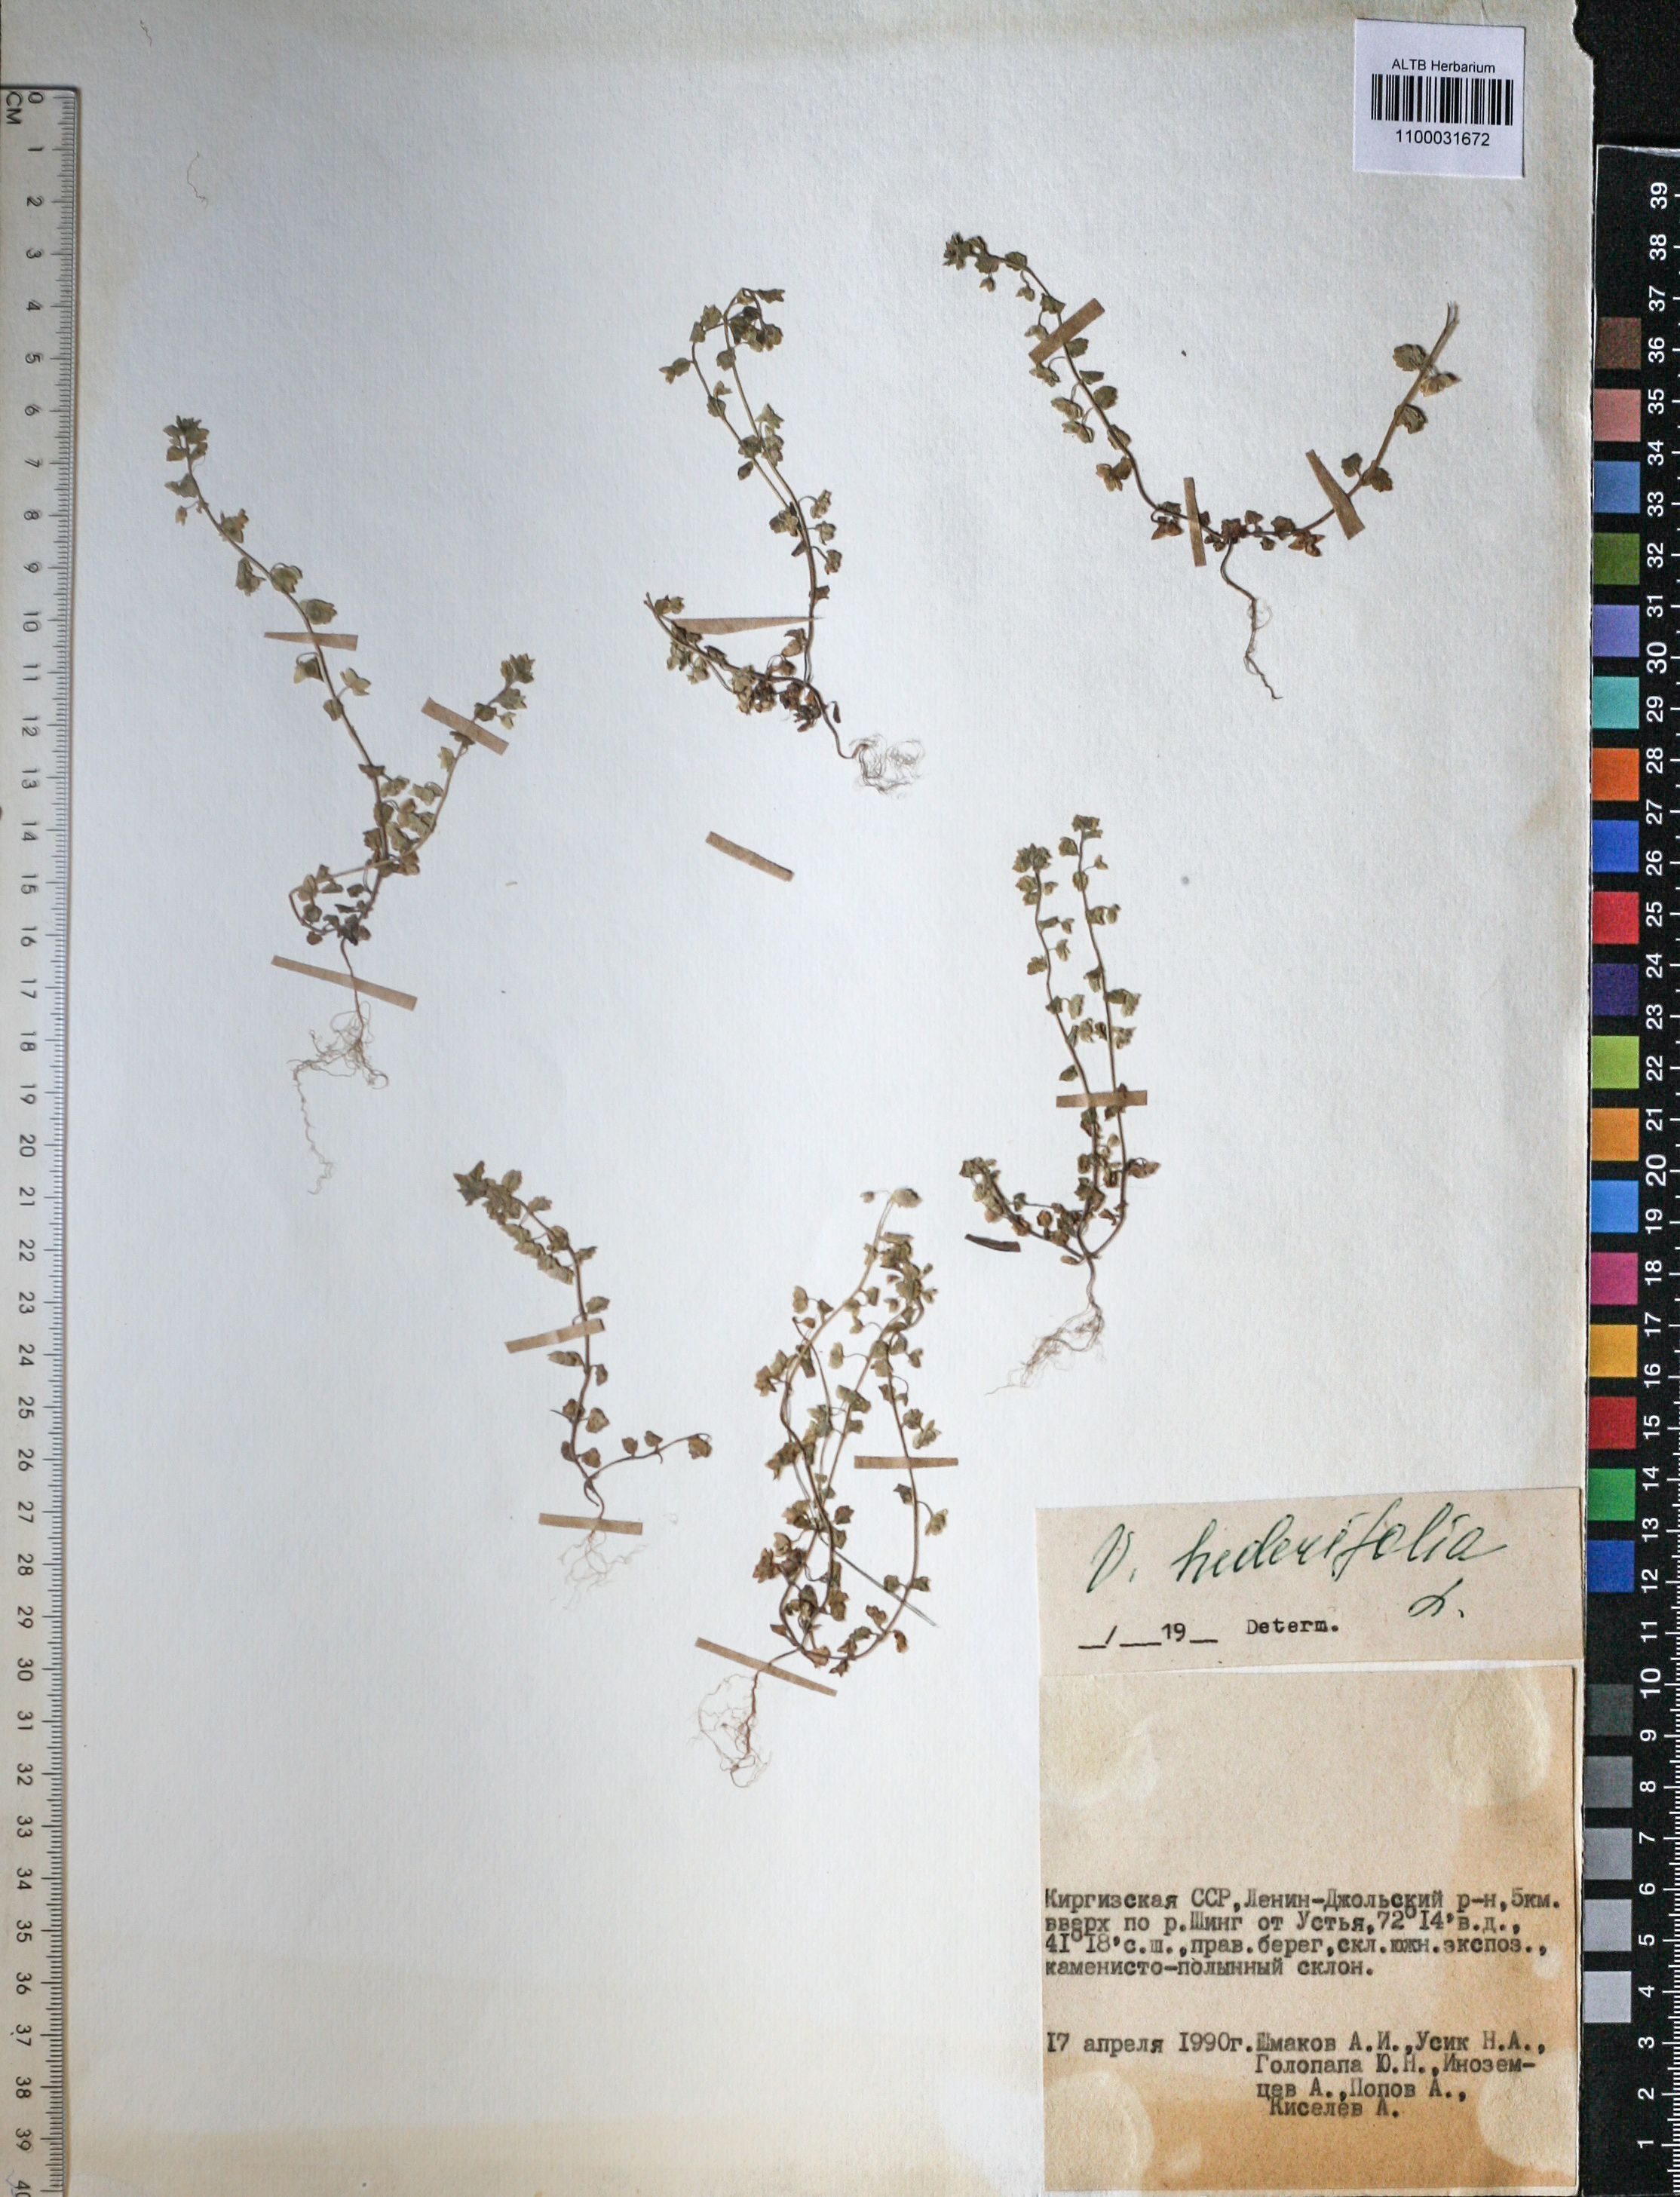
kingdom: Plantae
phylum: Tracheophyta
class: Magnoliopsida
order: Lamiales
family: Plantaginaceae
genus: Veronica
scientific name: Veronica hederifolia
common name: Ivy-leaved speedwell
